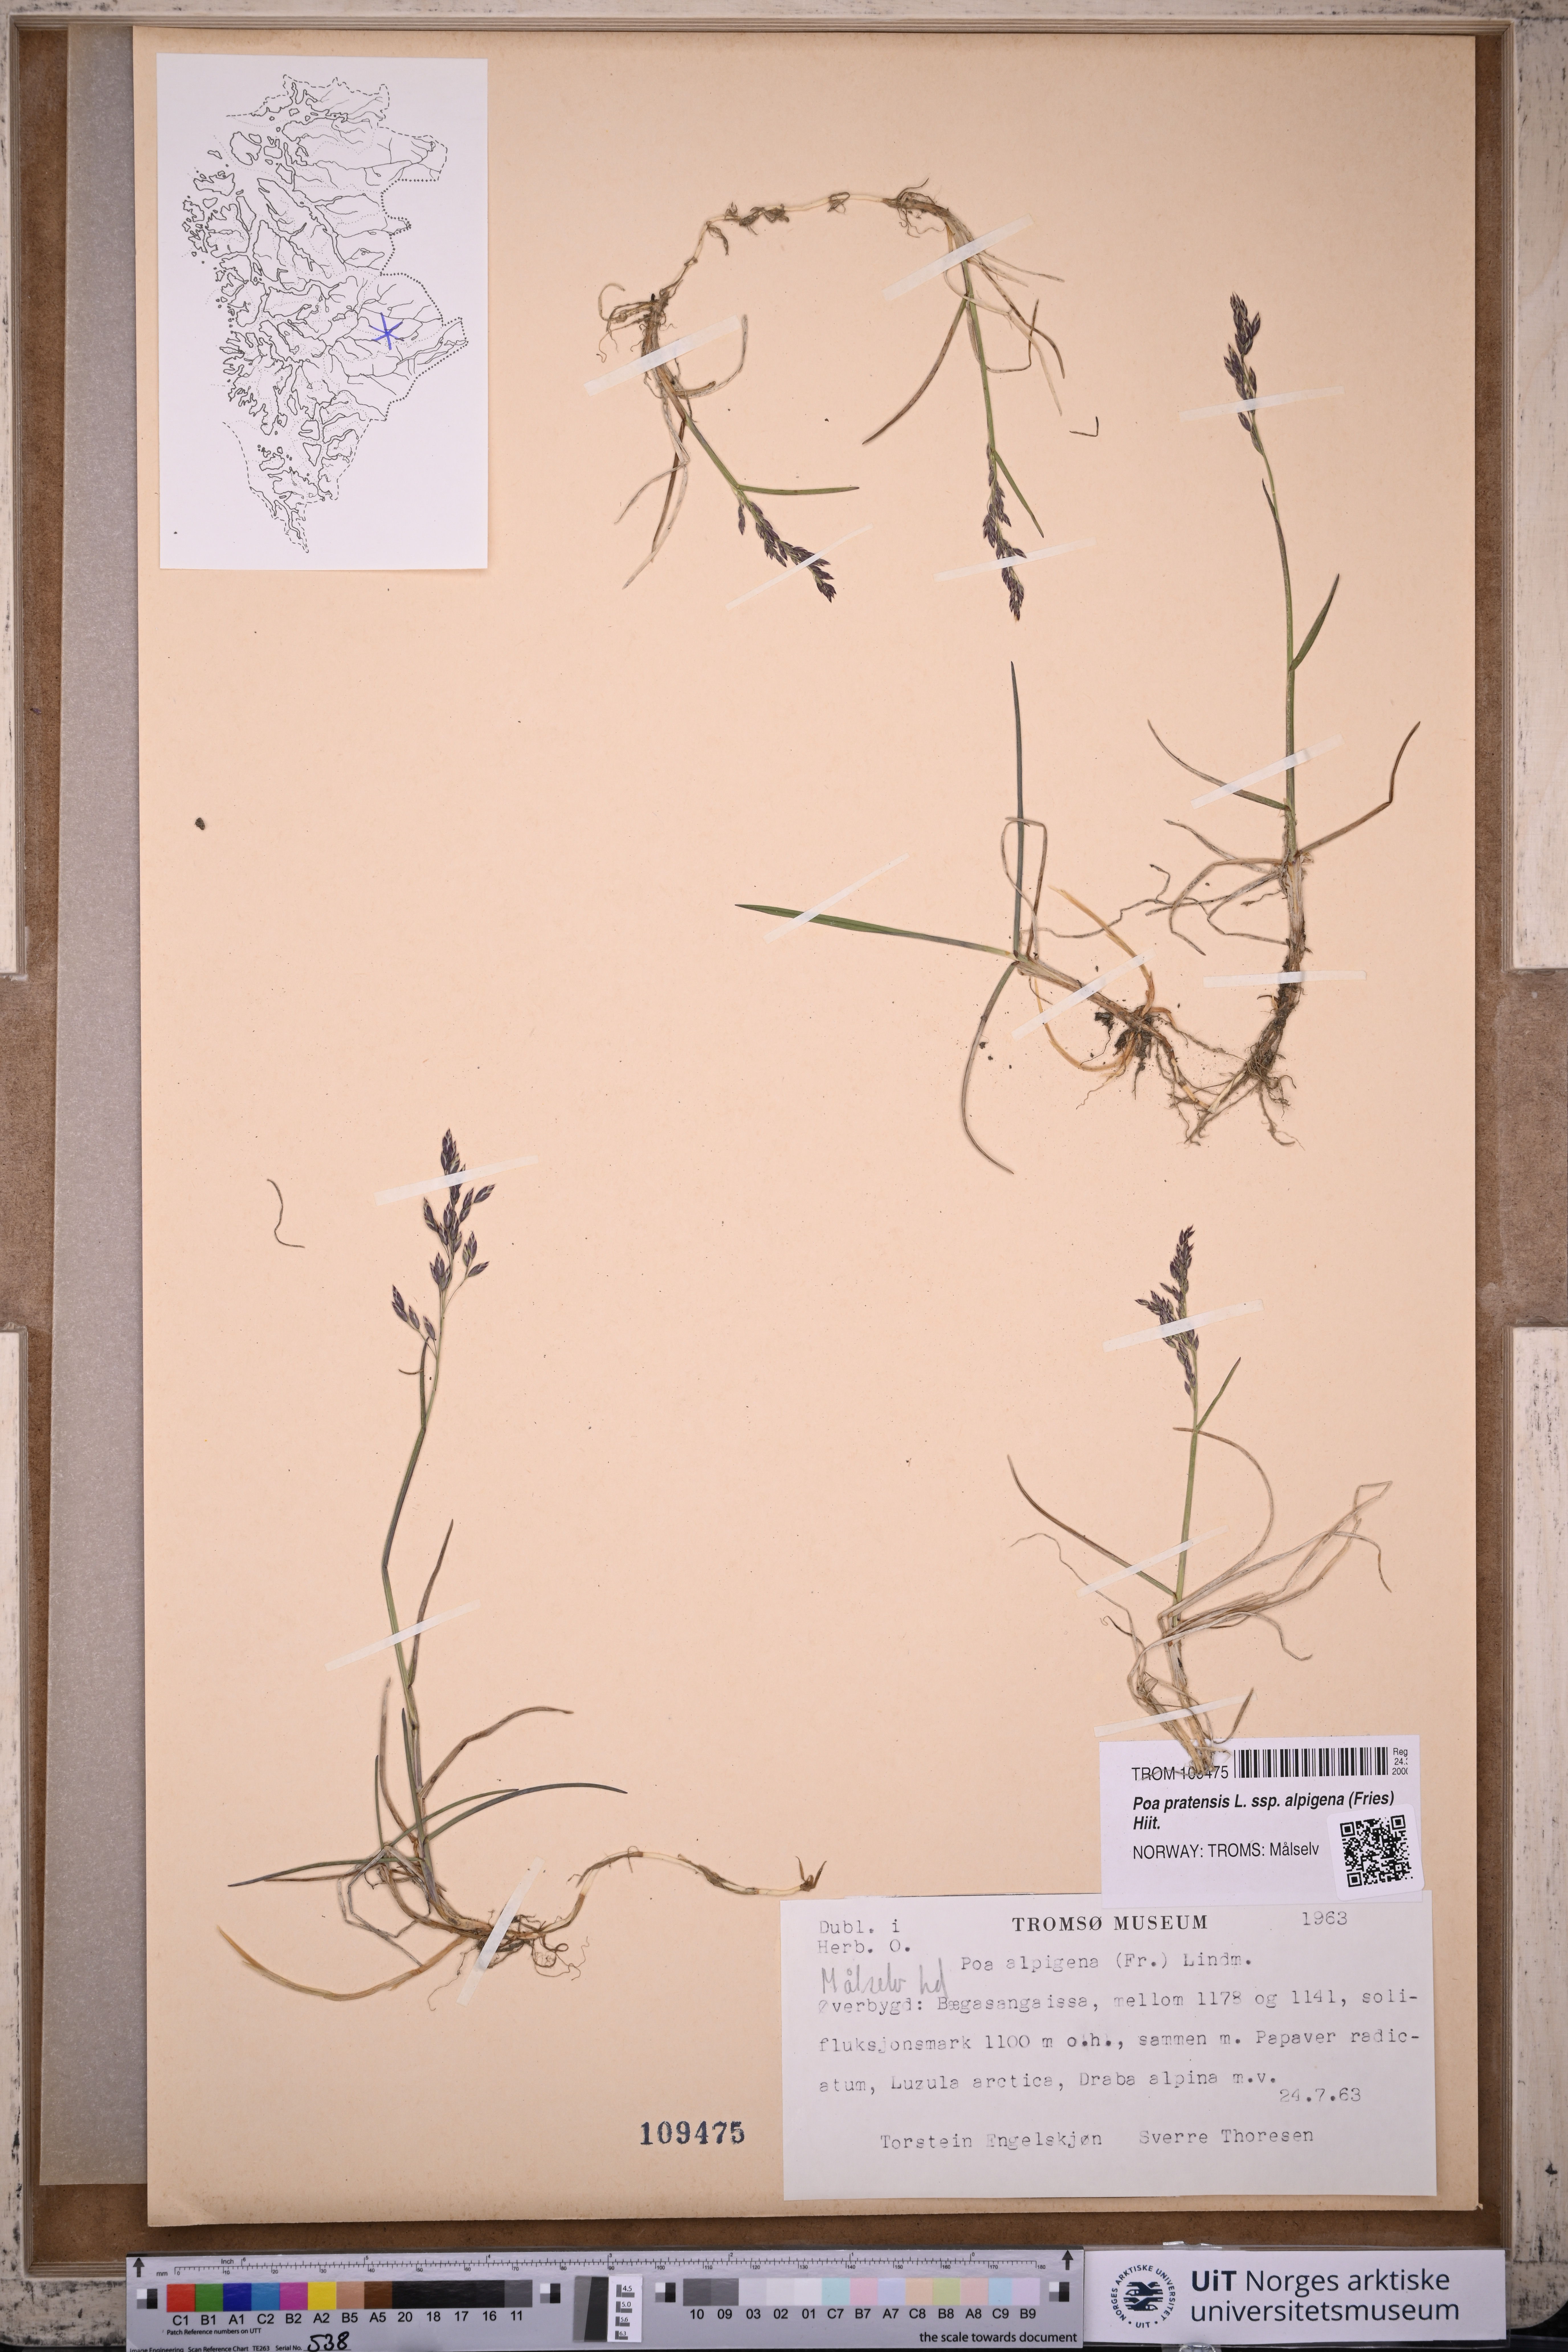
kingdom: Plantae
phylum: Tracheophyta
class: Liliopsida
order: Poales
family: Poaceae
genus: Poa
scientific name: Poa alpigena
